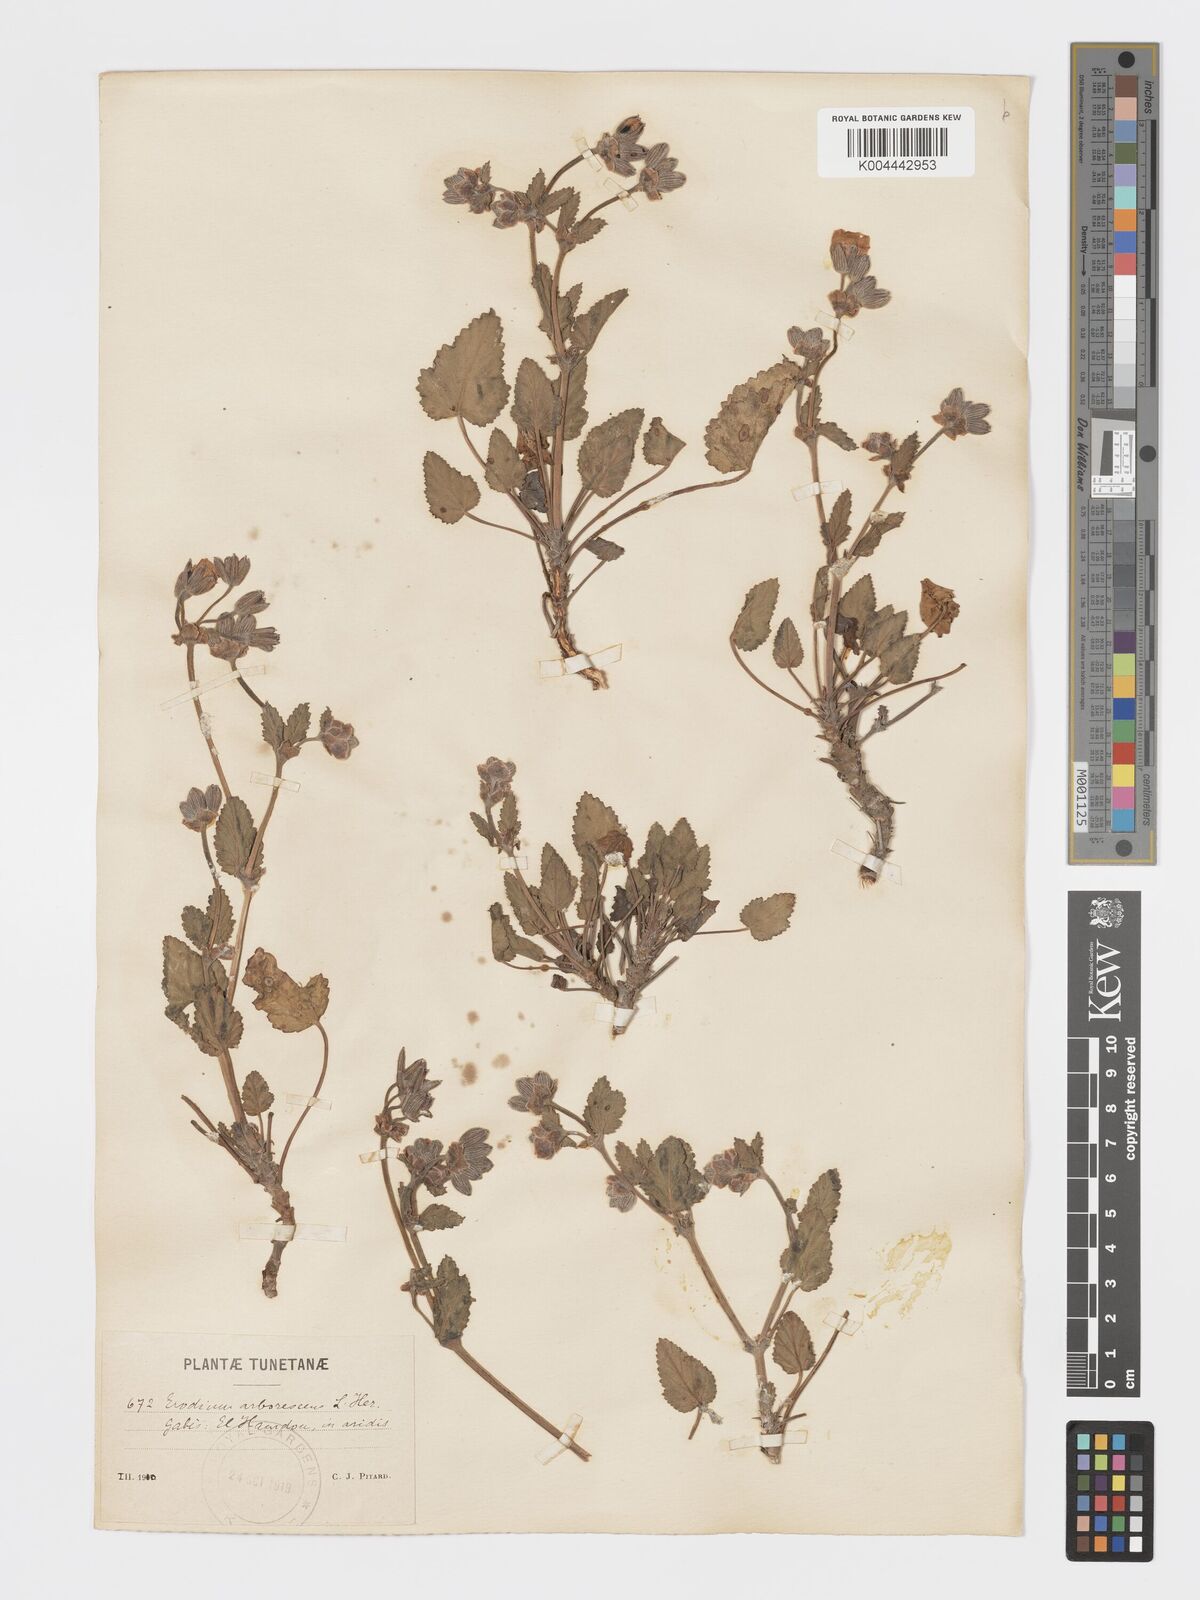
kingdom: Plantae
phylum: Tracheophyta
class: Magnoliopsida
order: Geraniales
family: Geraniaceae
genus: Erodium
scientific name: Erodium arborescens
